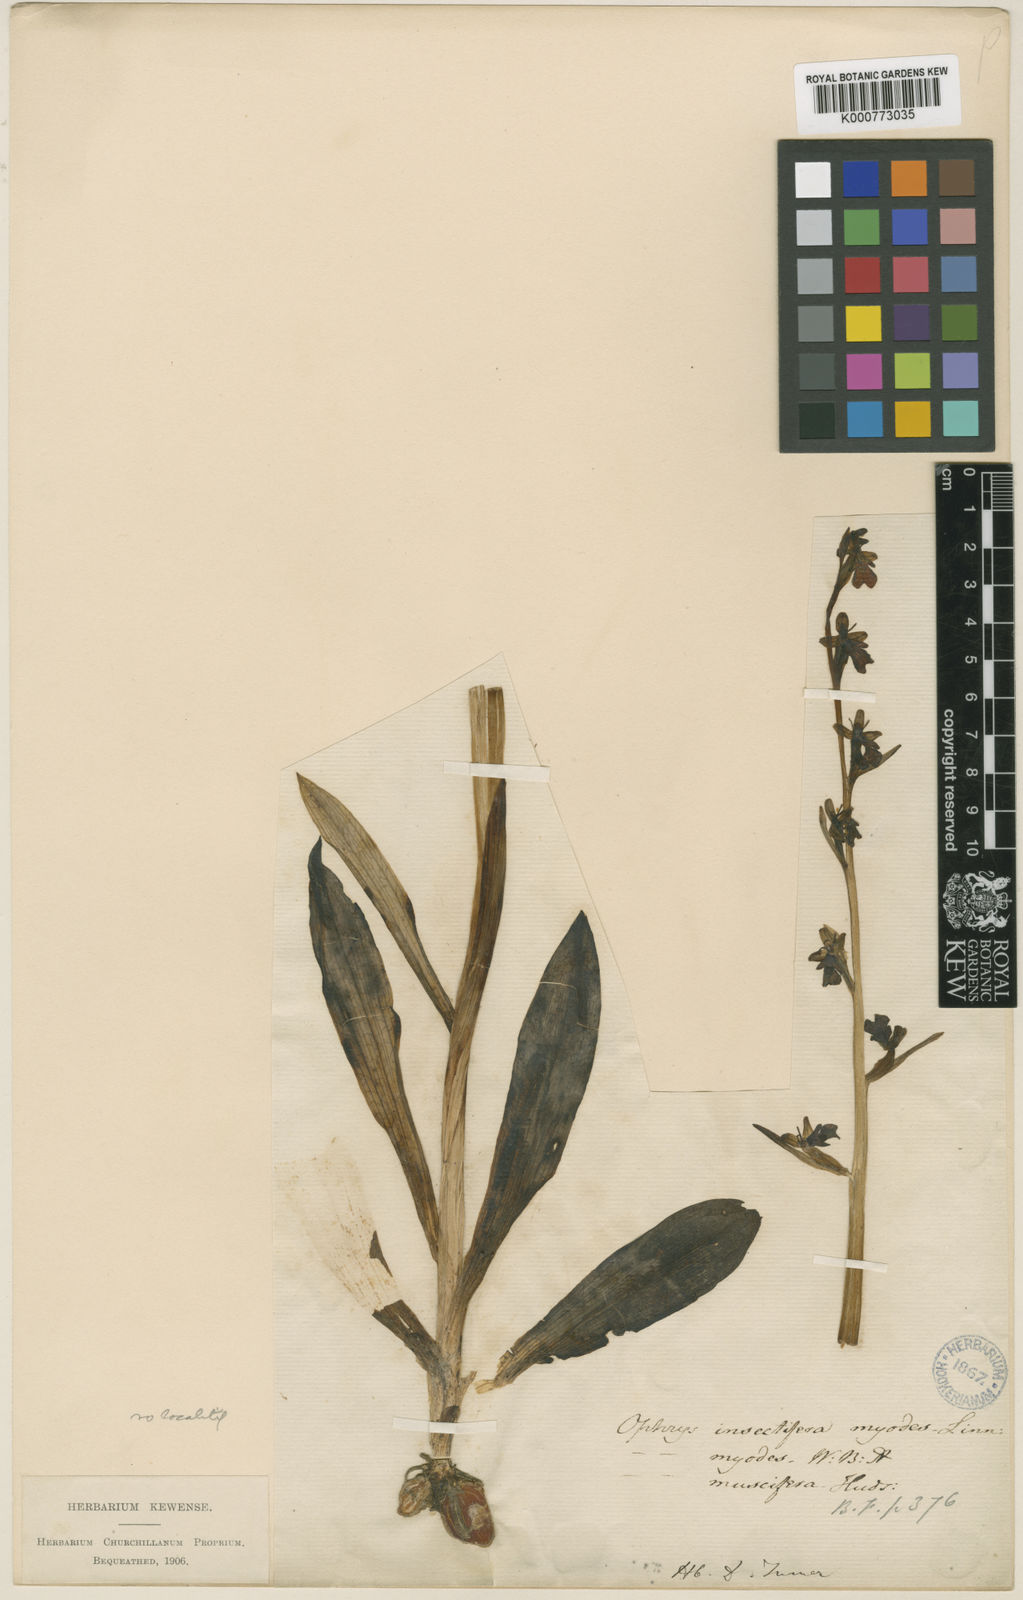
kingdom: Plantae
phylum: Tracheophyta
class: Liliopsida
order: Asparagales
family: Orchidaceae
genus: Ophrys
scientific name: Ophrys insectifera
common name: Fly orchid
